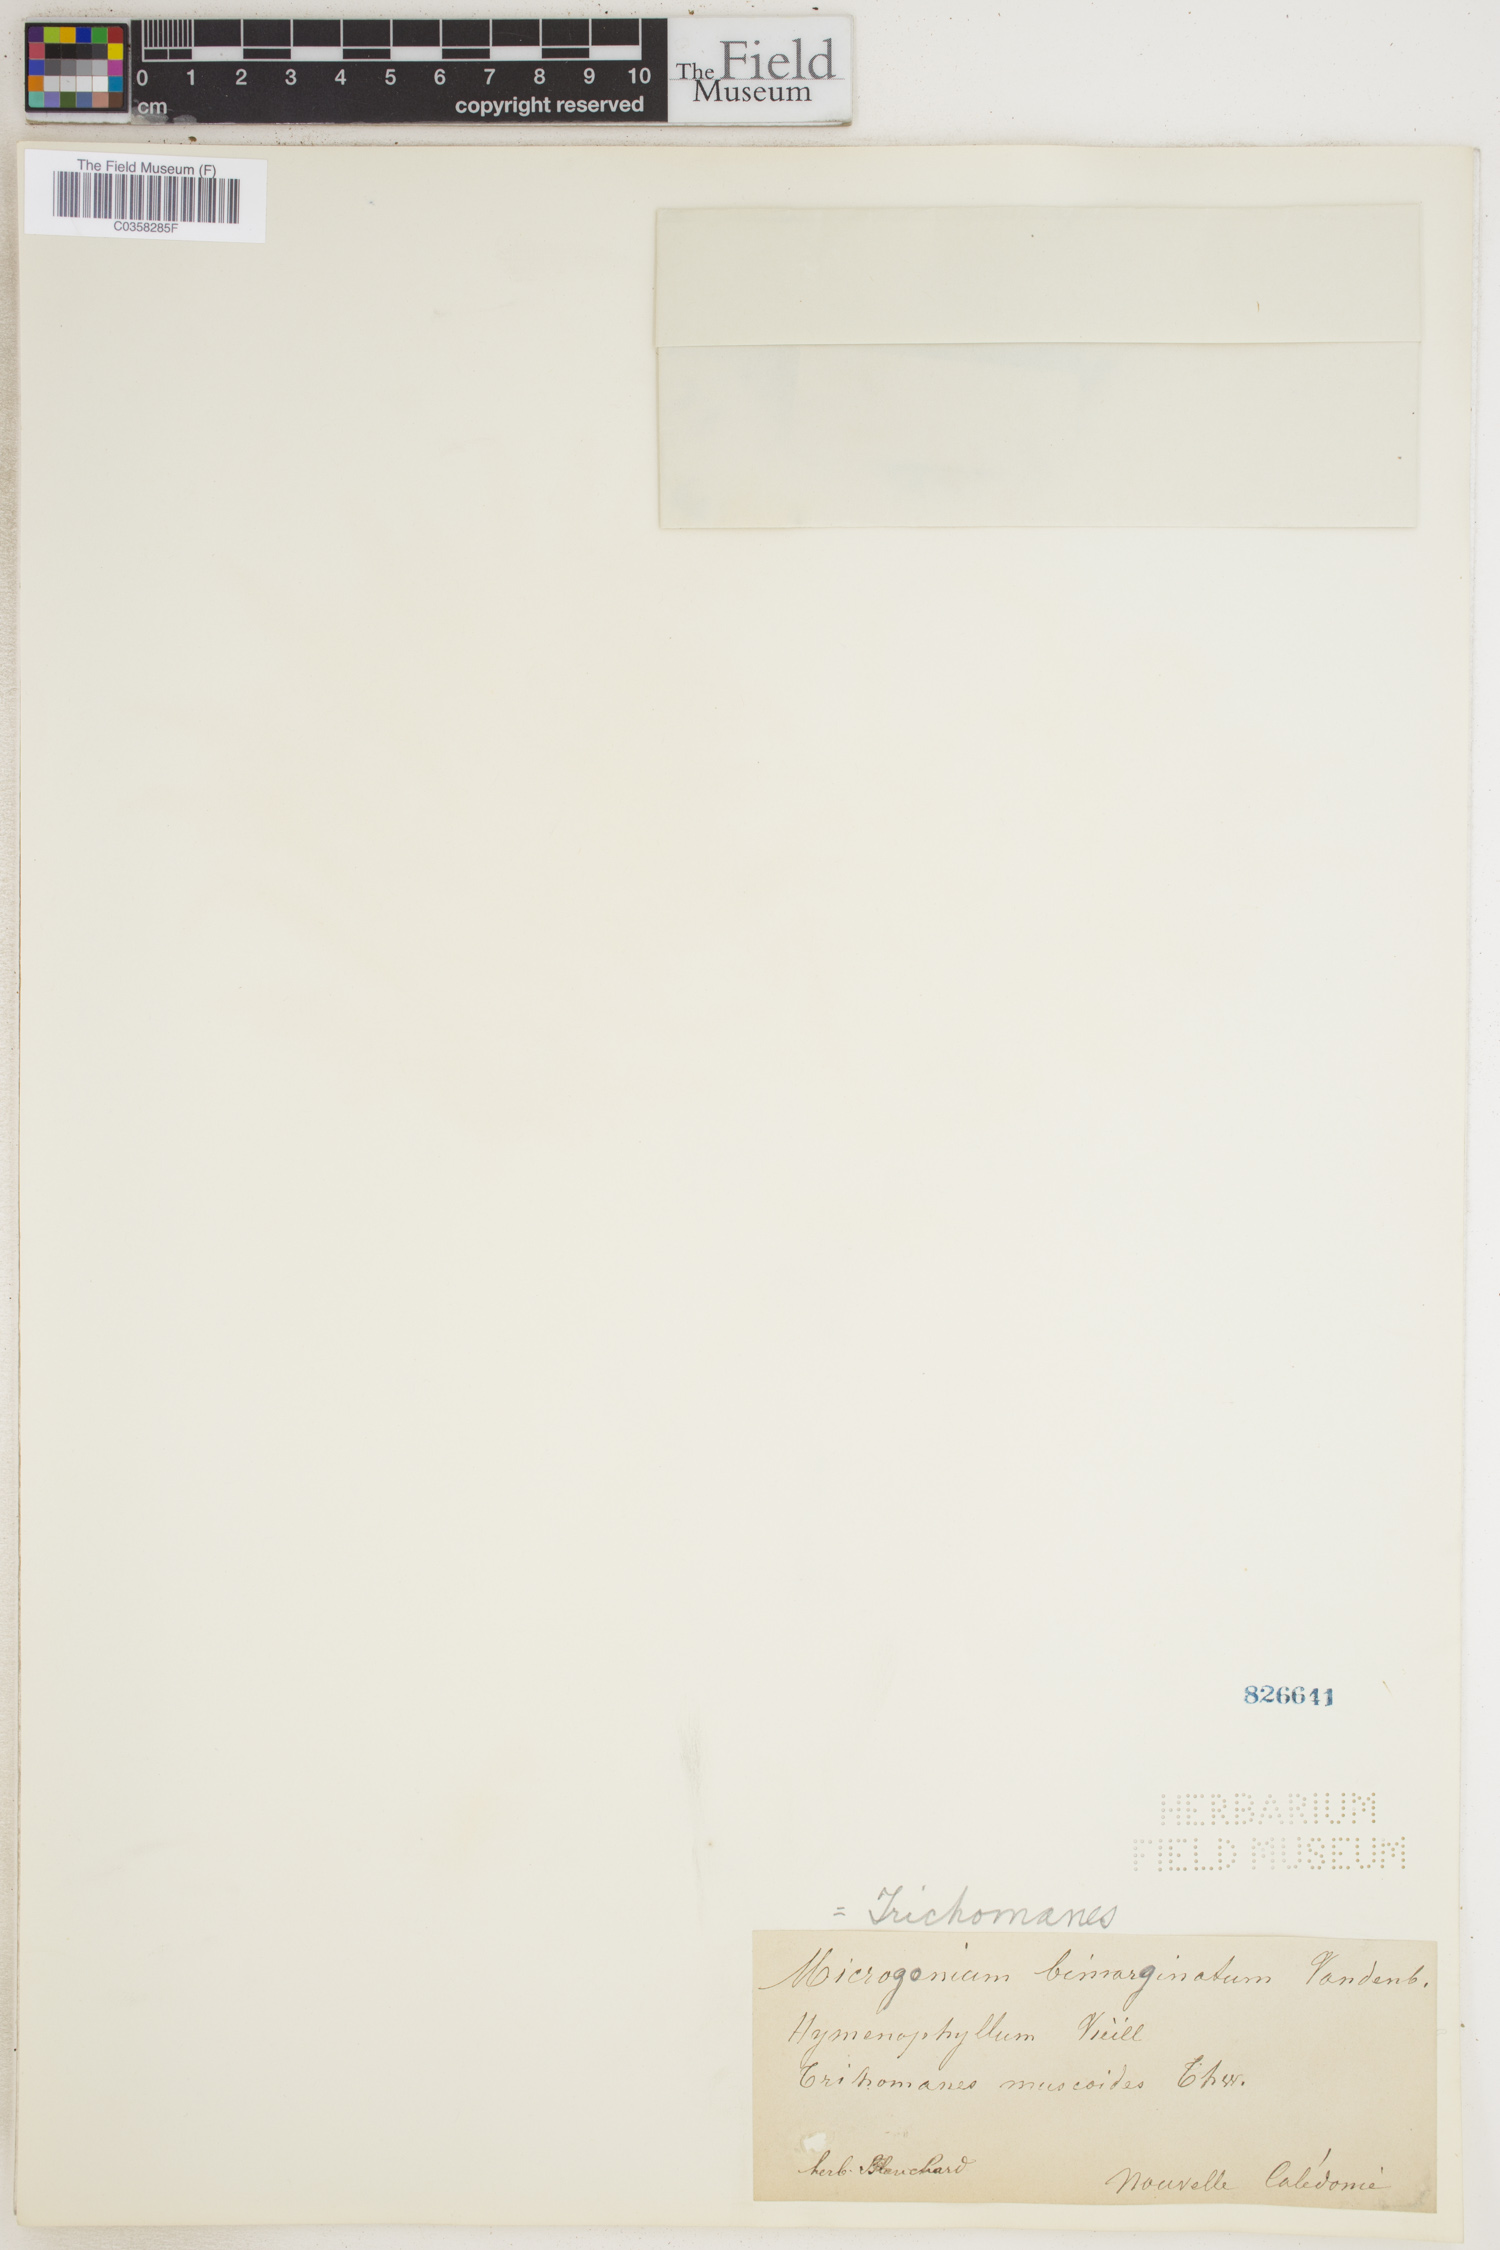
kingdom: Plantae
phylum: Tracheophyta
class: Polypodiopsida
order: Hymenophyllales
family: Hymenophyllaceae
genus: Didymoglossum
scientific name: Didymoglossum bimarginatum
